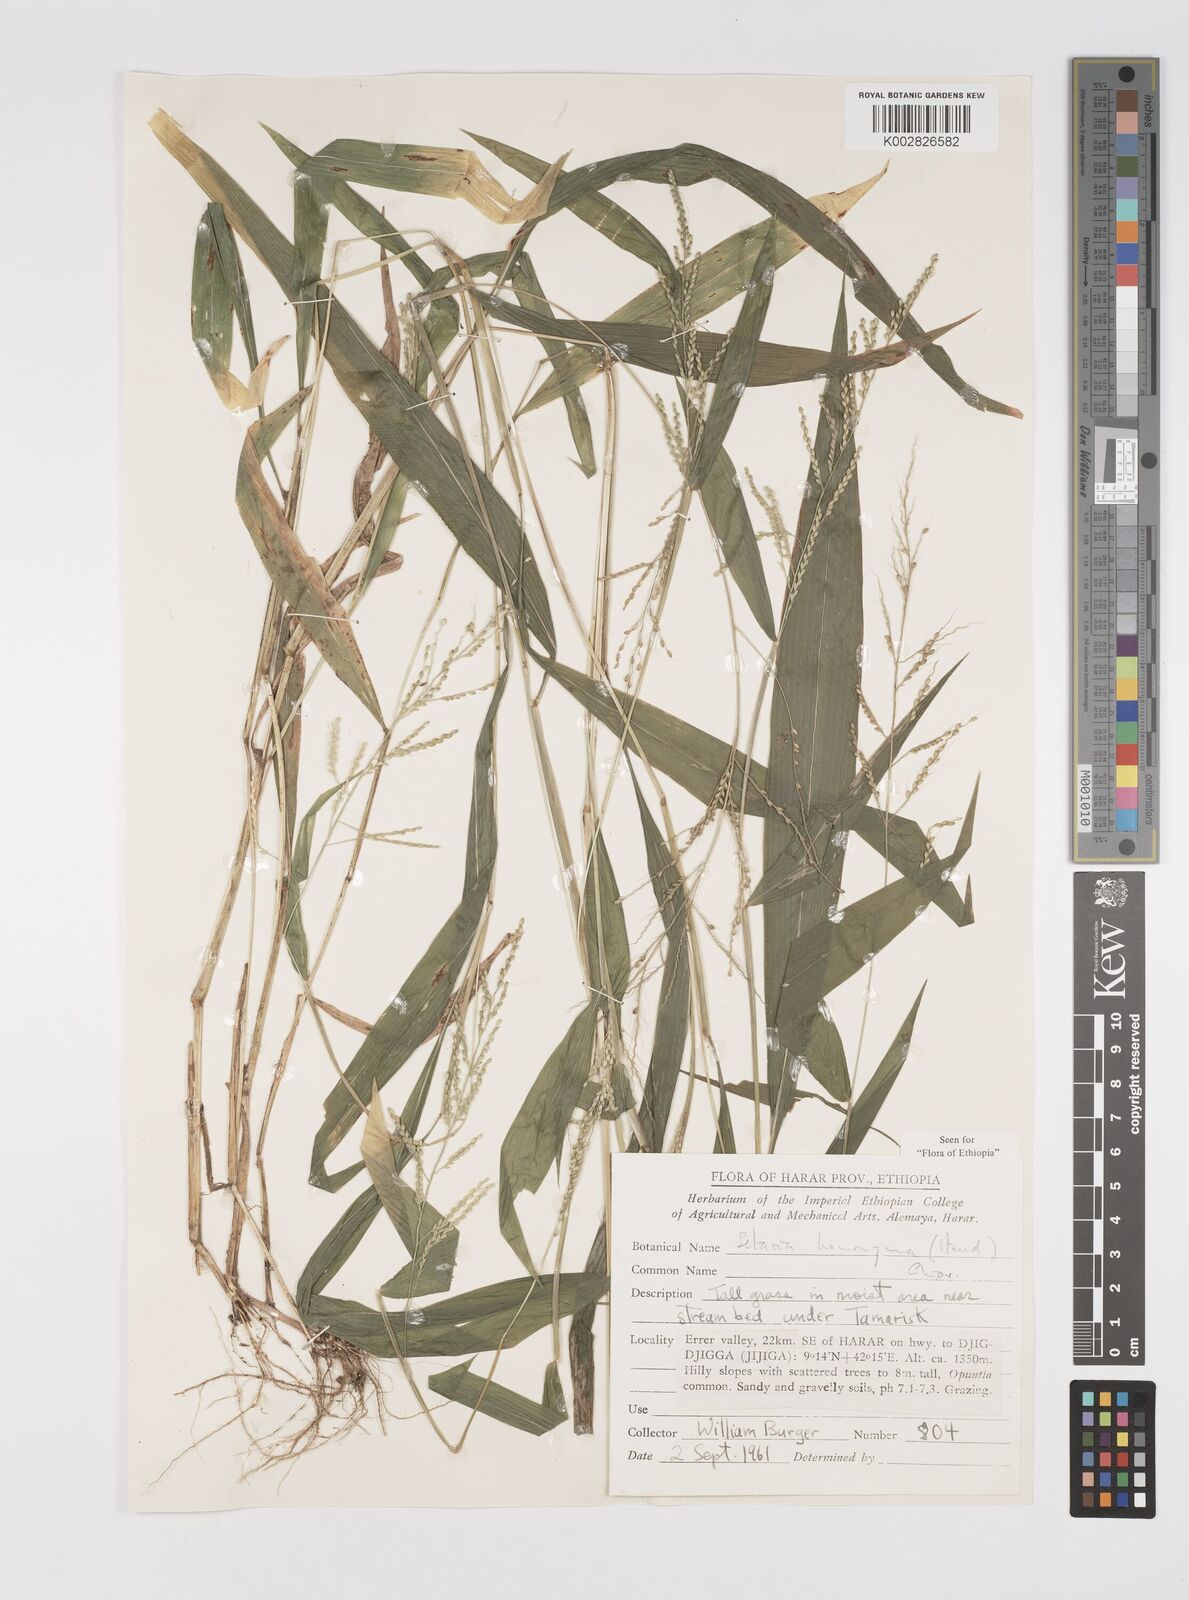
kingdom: Plantae
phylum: Tracheophyta
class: Liliopsida
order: Poales
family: Poaceae
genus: Setaria
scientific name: Setaria homonyma
